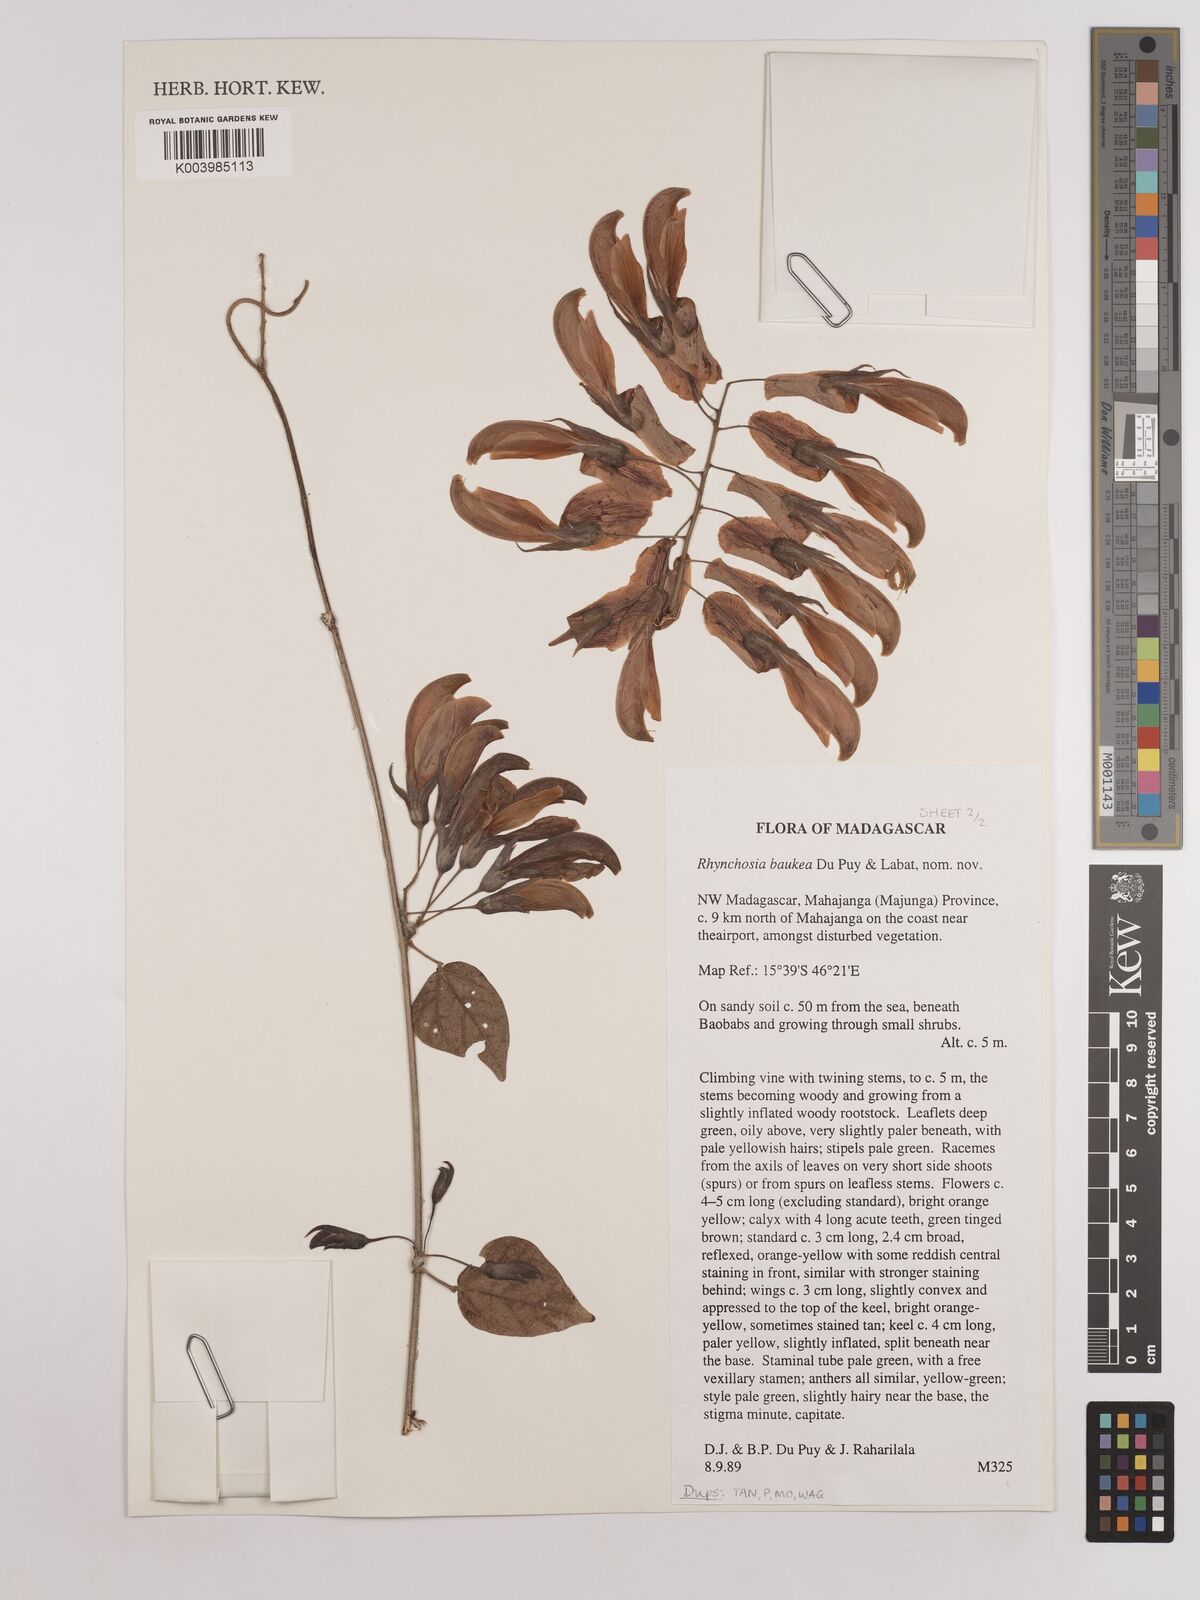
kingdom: Plantae
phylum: Tracheophyta
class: Magnoliopsida
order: Fabales
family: Fabaceae
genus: Rhynchosia
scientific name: Rhynchosia baukea
